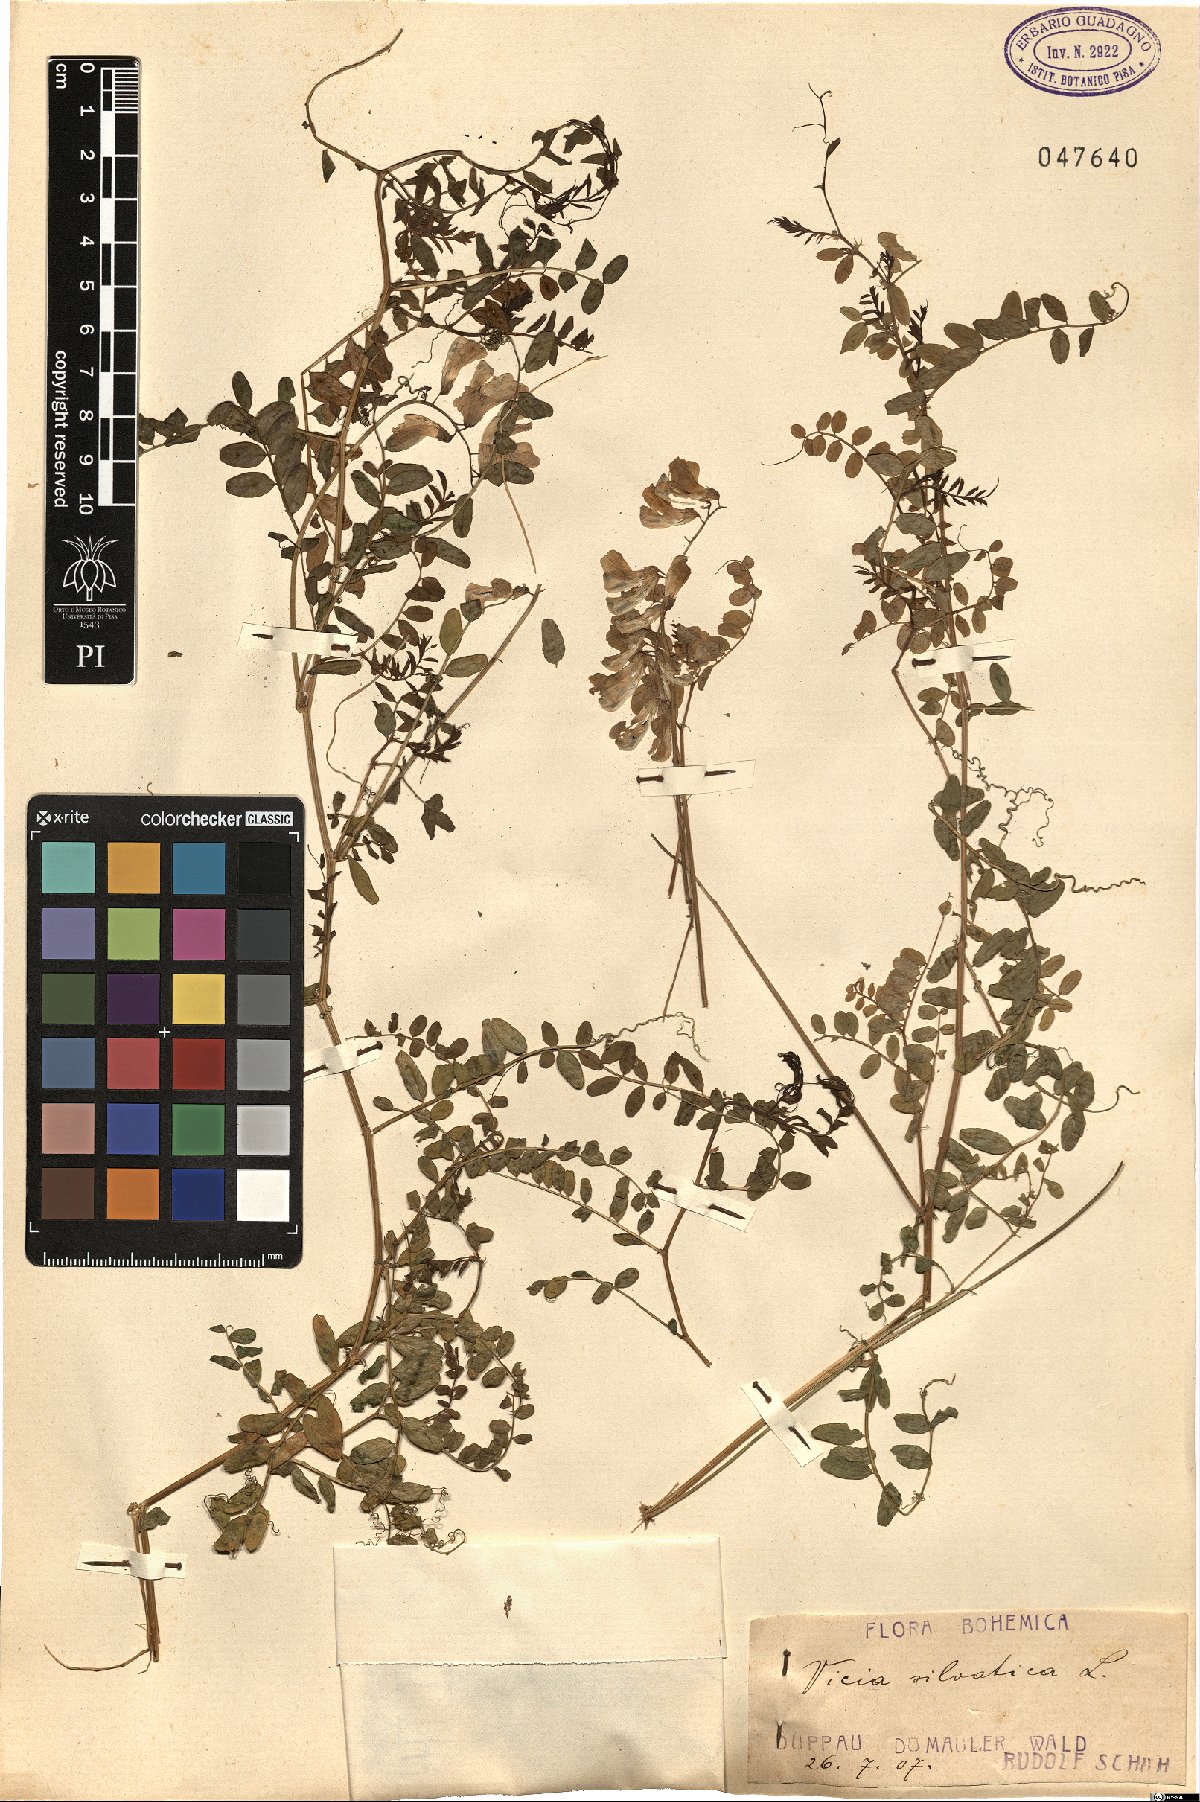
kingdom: Plantae
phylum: Tracheophyta
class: Magnoliopsida
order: Fabales
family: Fabaceae
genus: Vicia
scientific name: Vicia sylvatica
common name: Wood vetch
